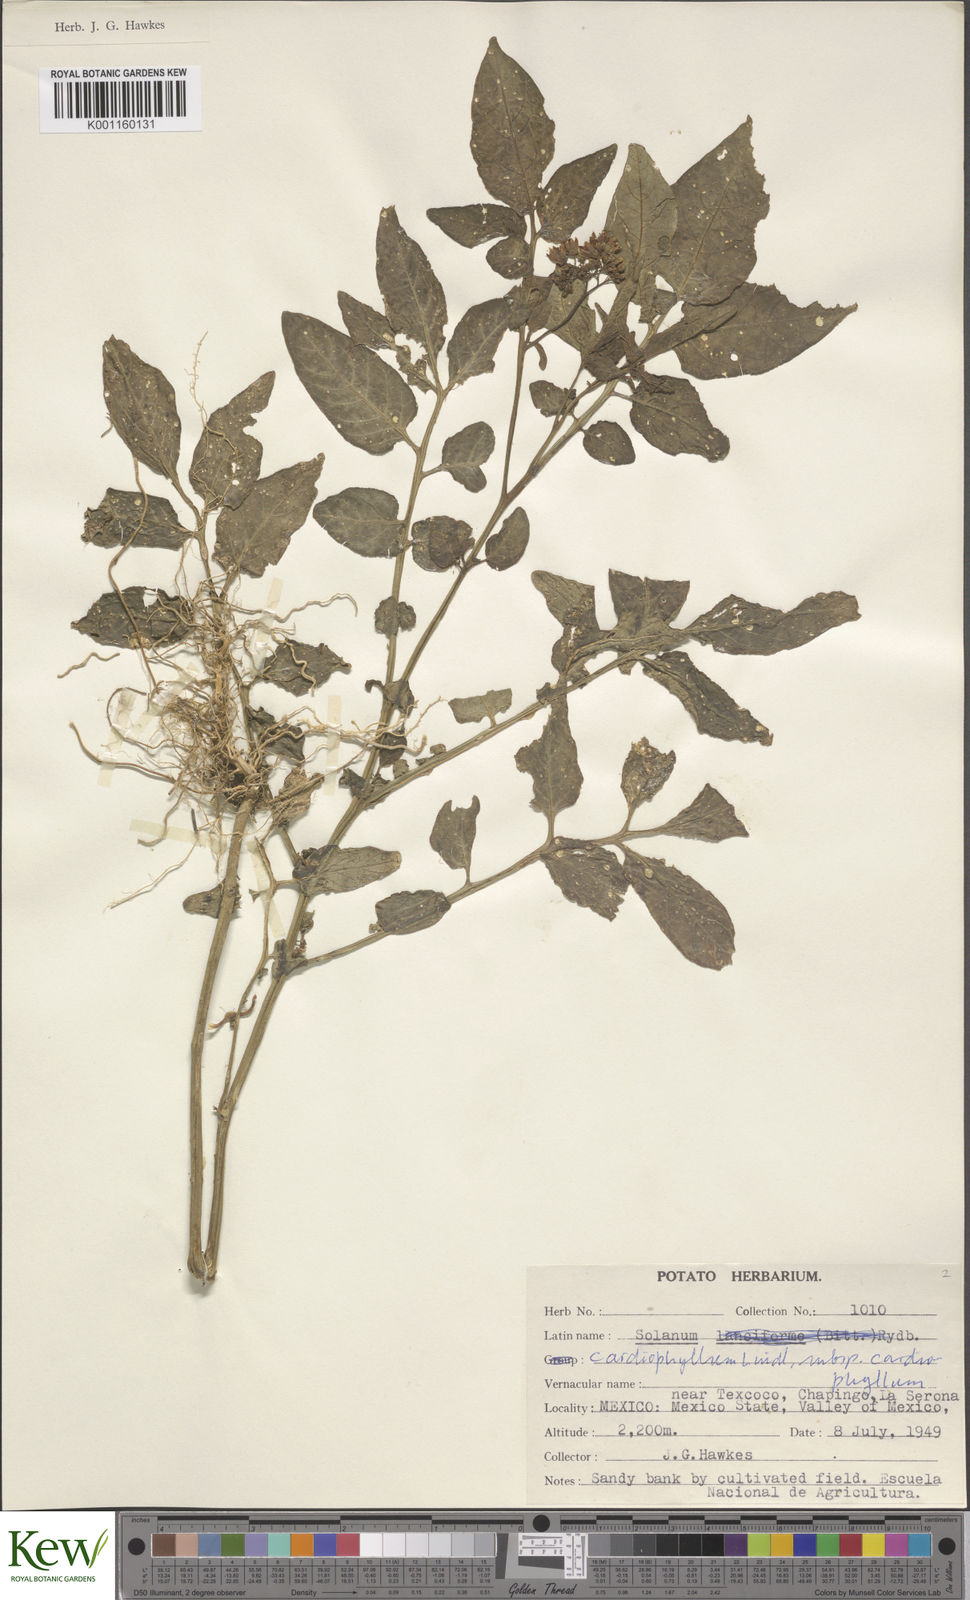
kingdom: Plantae
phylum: Tracheophyta
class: Magnoliopsida
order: Solanales
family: Solanaceae
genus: Solanum
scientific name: Solanum cardiophyllum
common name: Heartleaf horsenettle
